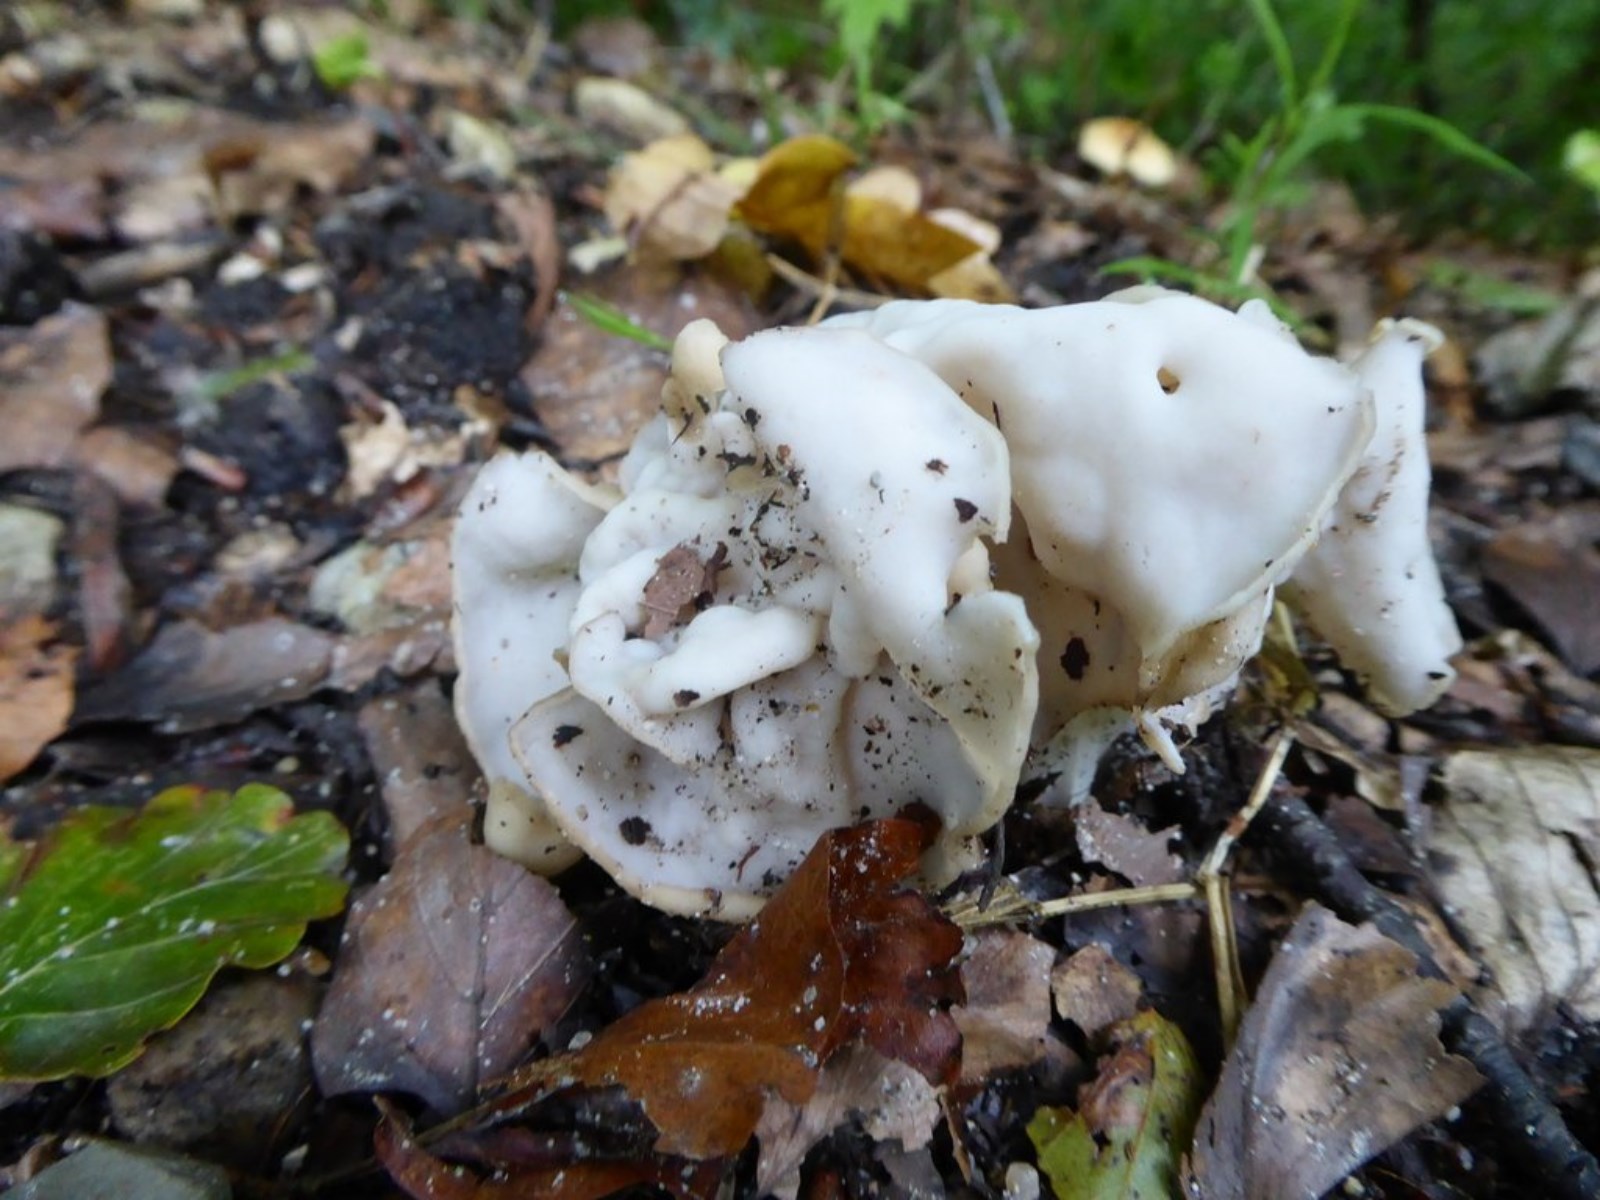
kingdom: Fungi
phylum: Ascomycota
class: Pezizomycetes
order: Pezizales
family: Helvellaceae
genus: Helvella
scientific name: Helvella crispa
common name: kruset foldhat
